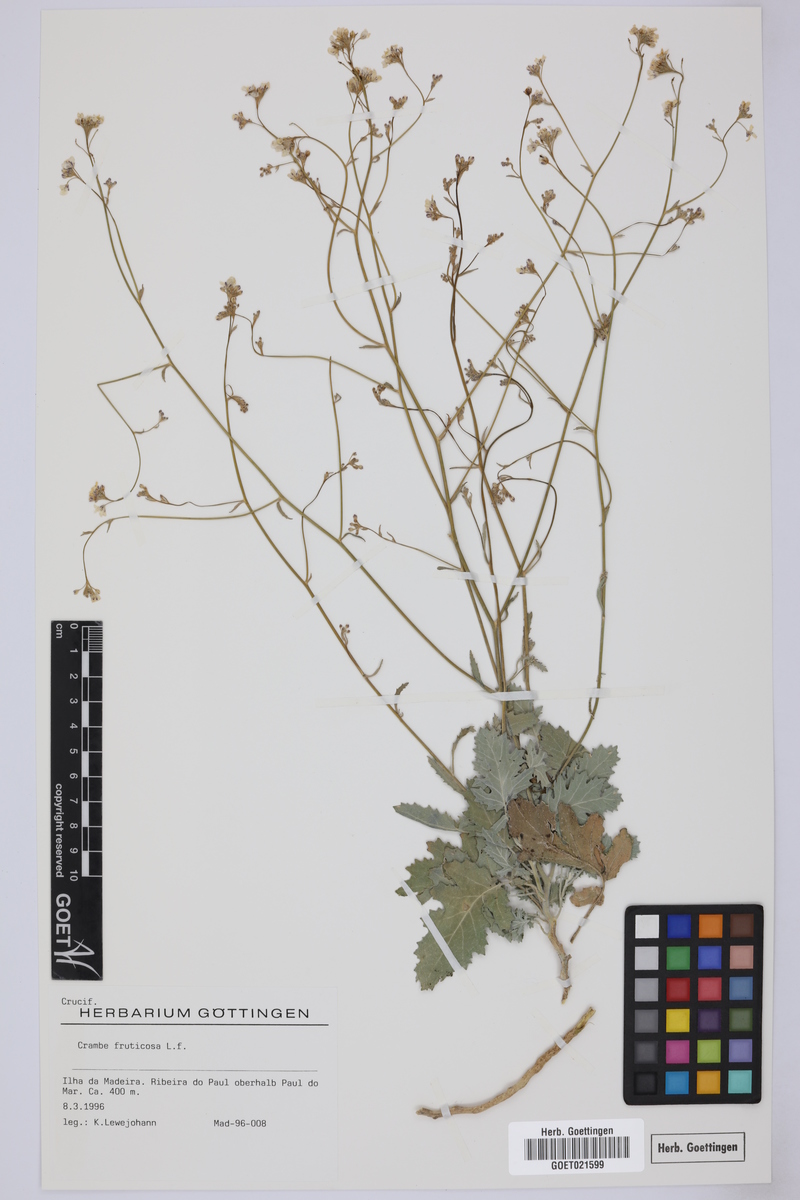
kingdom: Plantae
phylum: Tracheophyta
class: Magnoliopsida
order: Brassicales
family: Brassicaceae
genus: Crambe
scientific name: Crambe fruticosa
